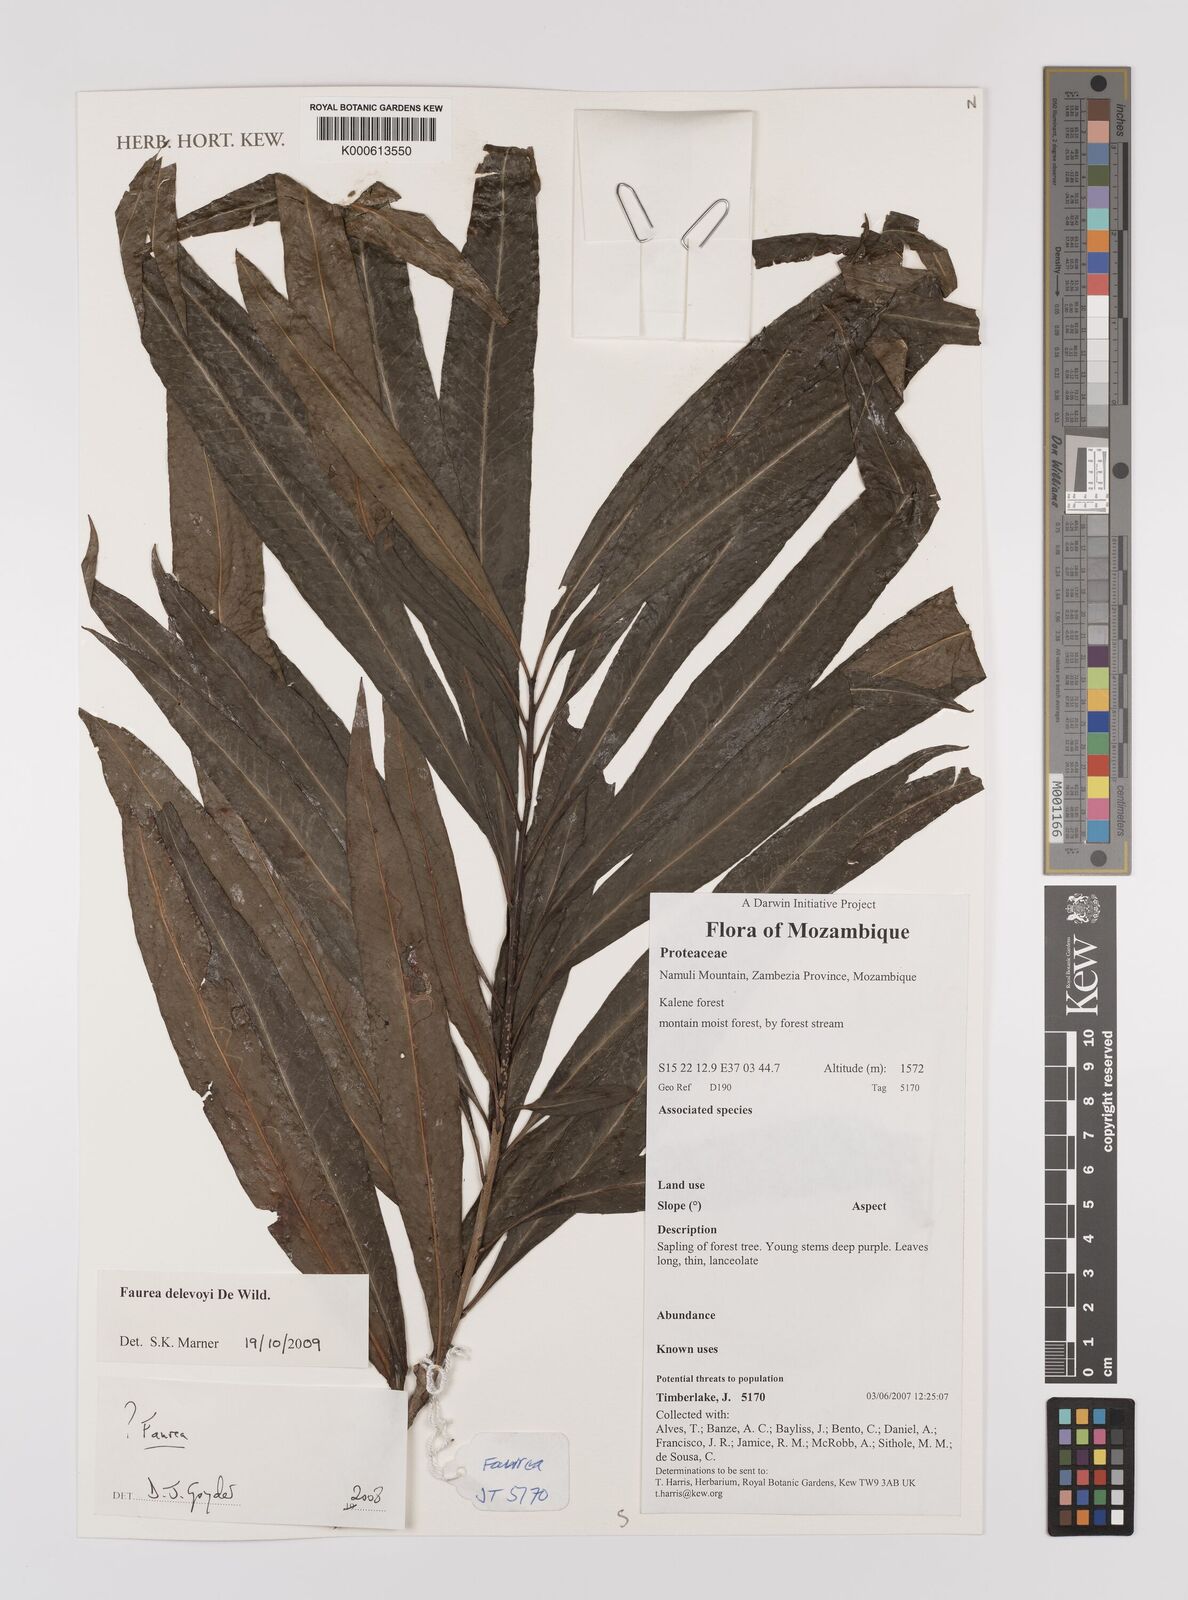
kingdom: Plantae
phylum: Tracheophyta
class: Magnoliopsida
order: Proteales
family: Proteaceae
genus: Faurea
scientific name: Faurea
